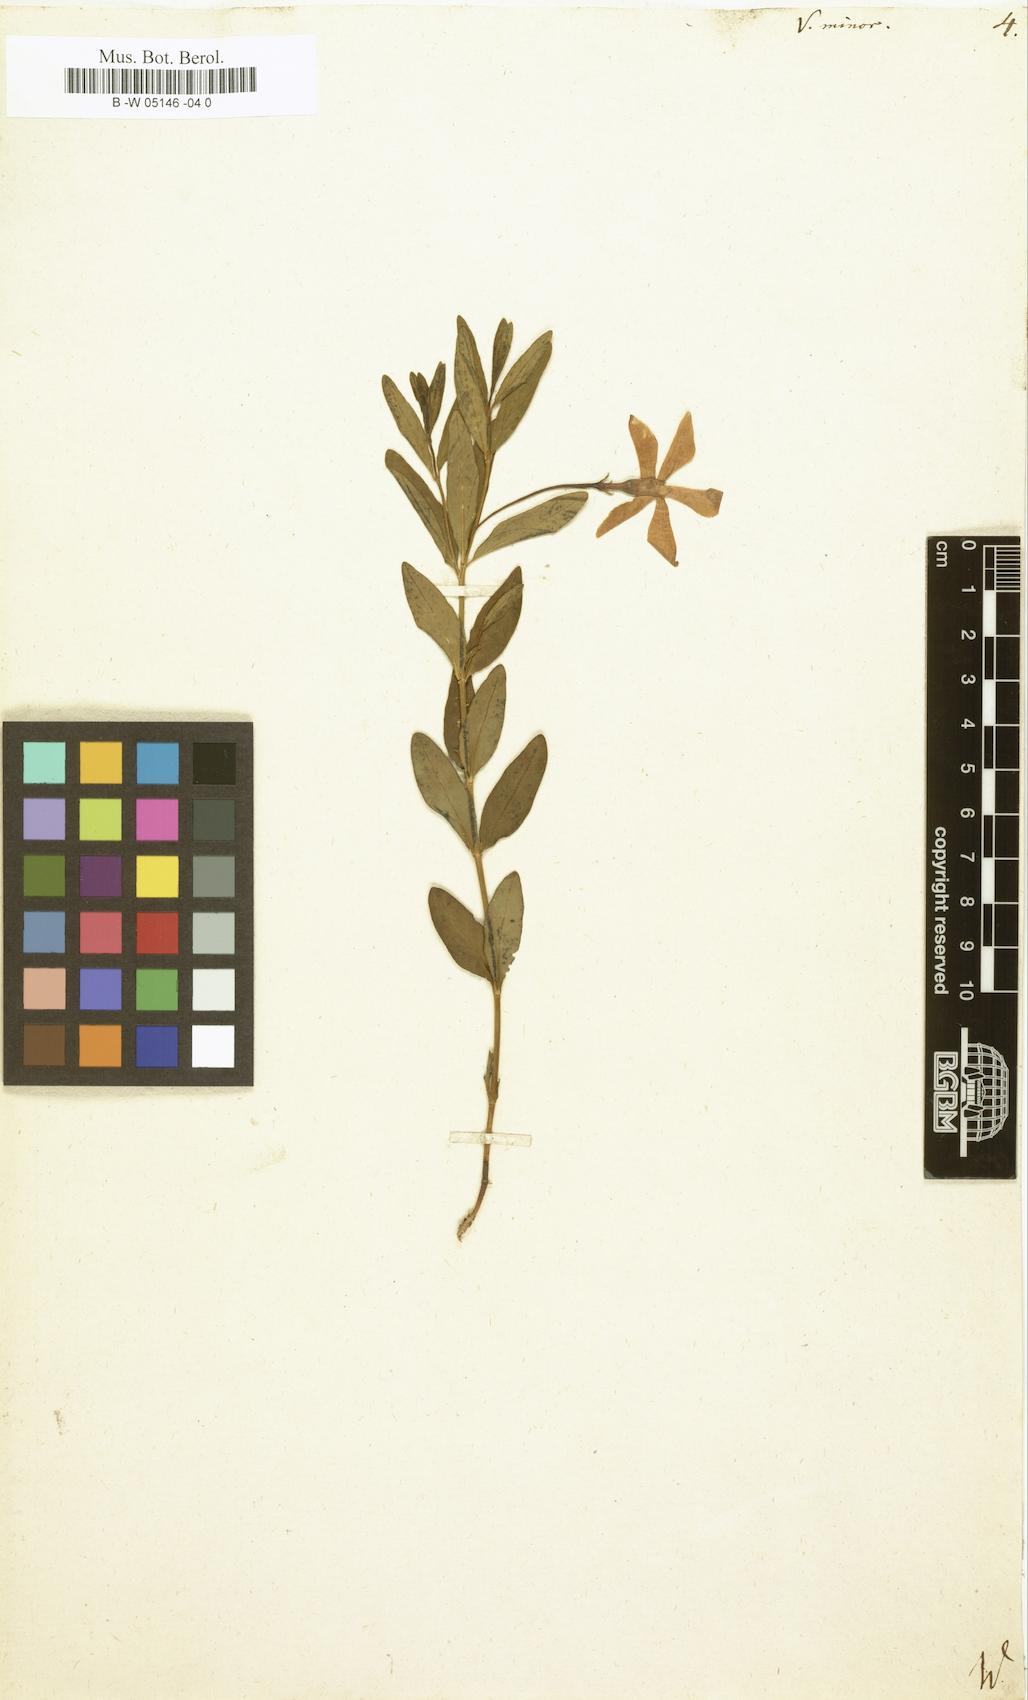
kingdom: Plantae
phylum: Tracheophyta
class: Magnoliopsida
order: Gentianales
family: Apocynaceae
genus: Vinca
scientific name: Vinca minor
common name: Lesser periwinkle
